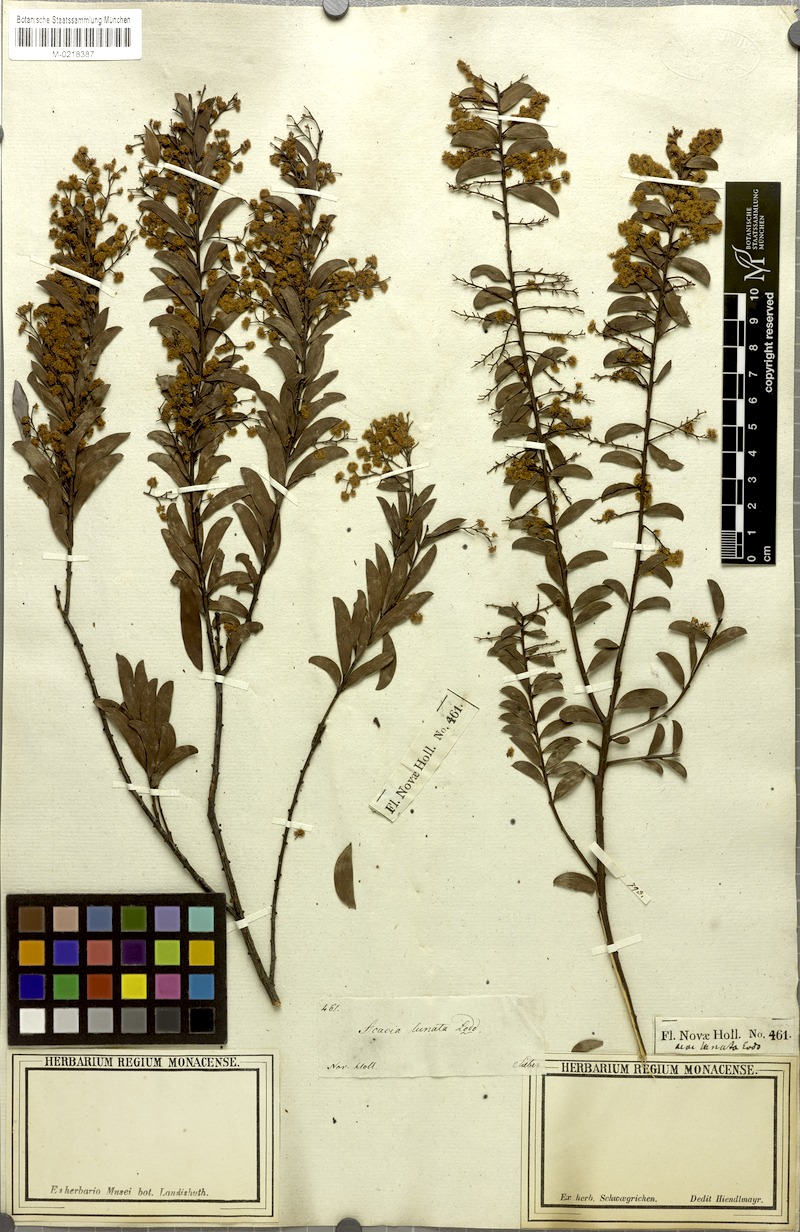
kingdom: Plantae
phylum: Tracheophyta
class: Magnoliopsida
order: Fabales
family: Fabaceae
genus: Acacia
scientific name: Acacia lunata
